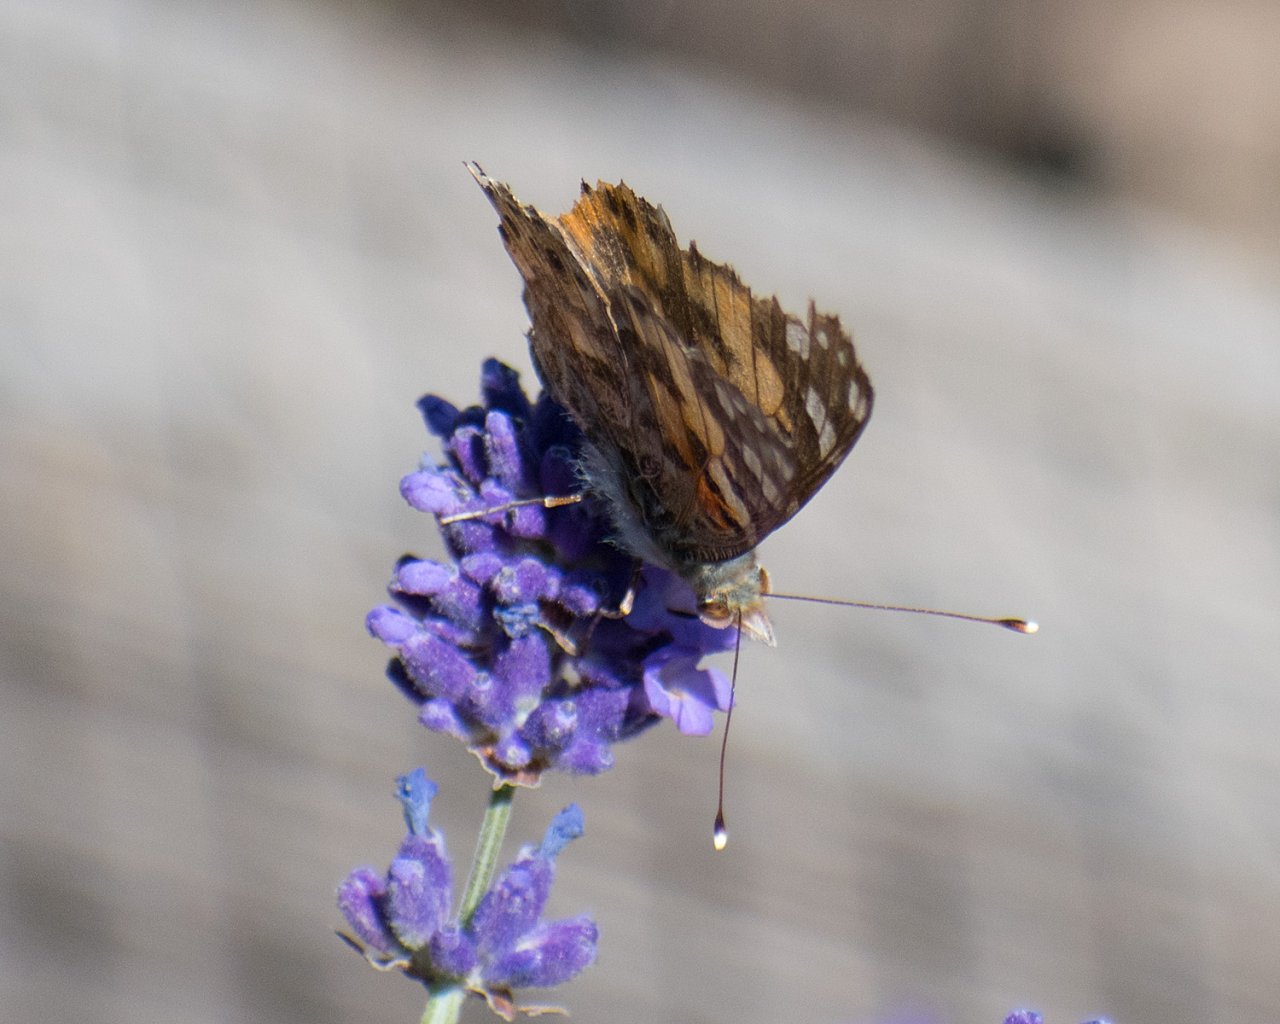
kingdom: Animalia
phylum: Arthropoda
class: Insecta
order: Lepidoptera
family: Nymphalidae
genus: Vanessa
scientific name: Vanessa cardui
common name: Painted Lady
